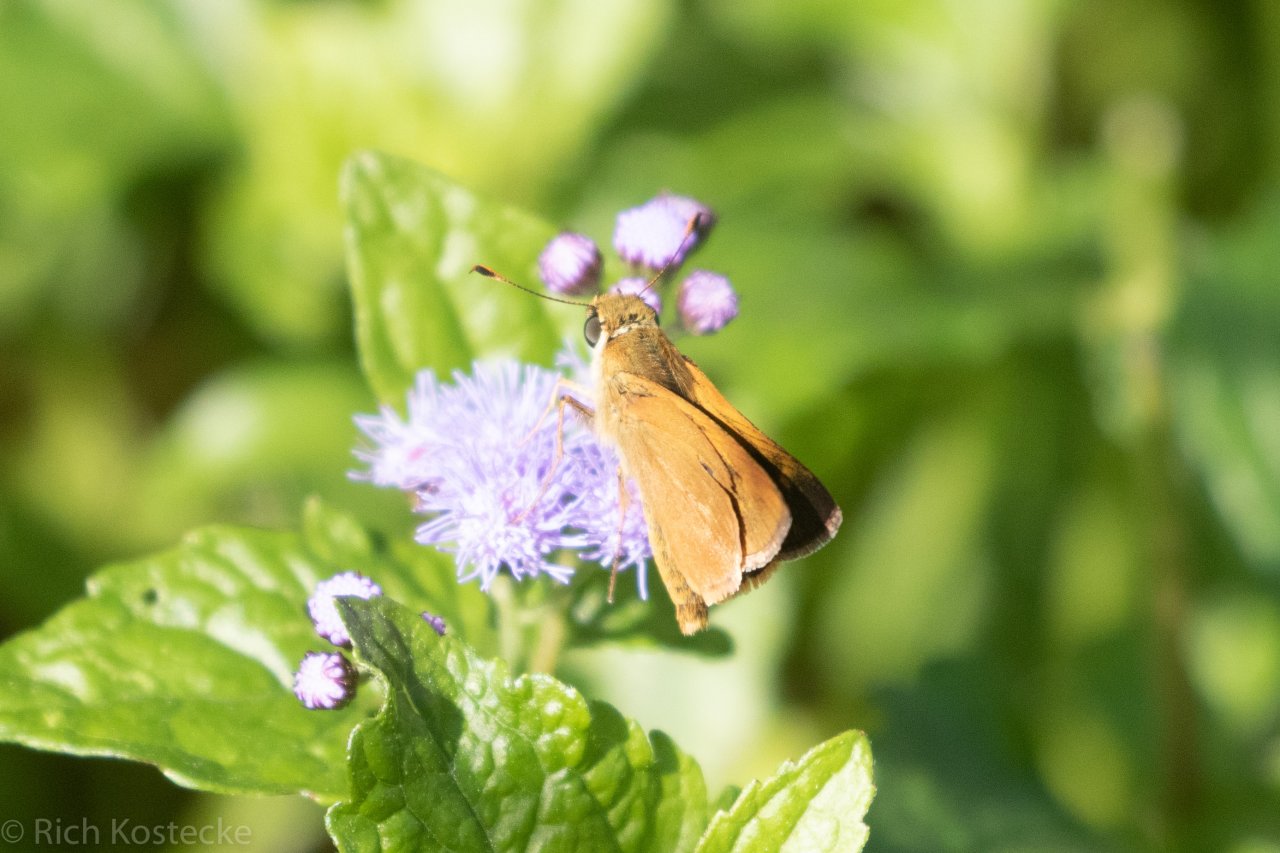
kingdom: Animalia
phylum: Arthropoda
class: Insecta
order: Lepidoptera
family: Hesperiidae
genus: Wallengrenia
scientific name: Wallengrenia otho
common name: Southern Broken-Dash
